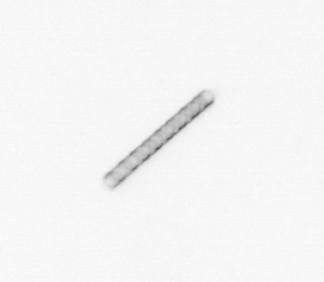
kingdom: Chromista
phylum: Ochrophyta
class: Bacillariophyceae
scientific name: Bacillariophyceae
